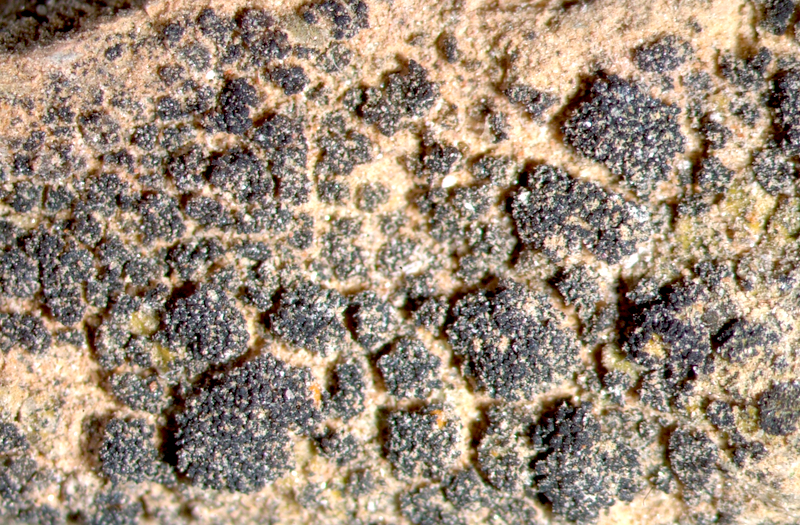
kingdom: Fungi
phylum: Ascomycota
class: Lichinomycetes
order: Lichinales
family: Lichinaceae
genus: Peccania
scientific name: Peccania
